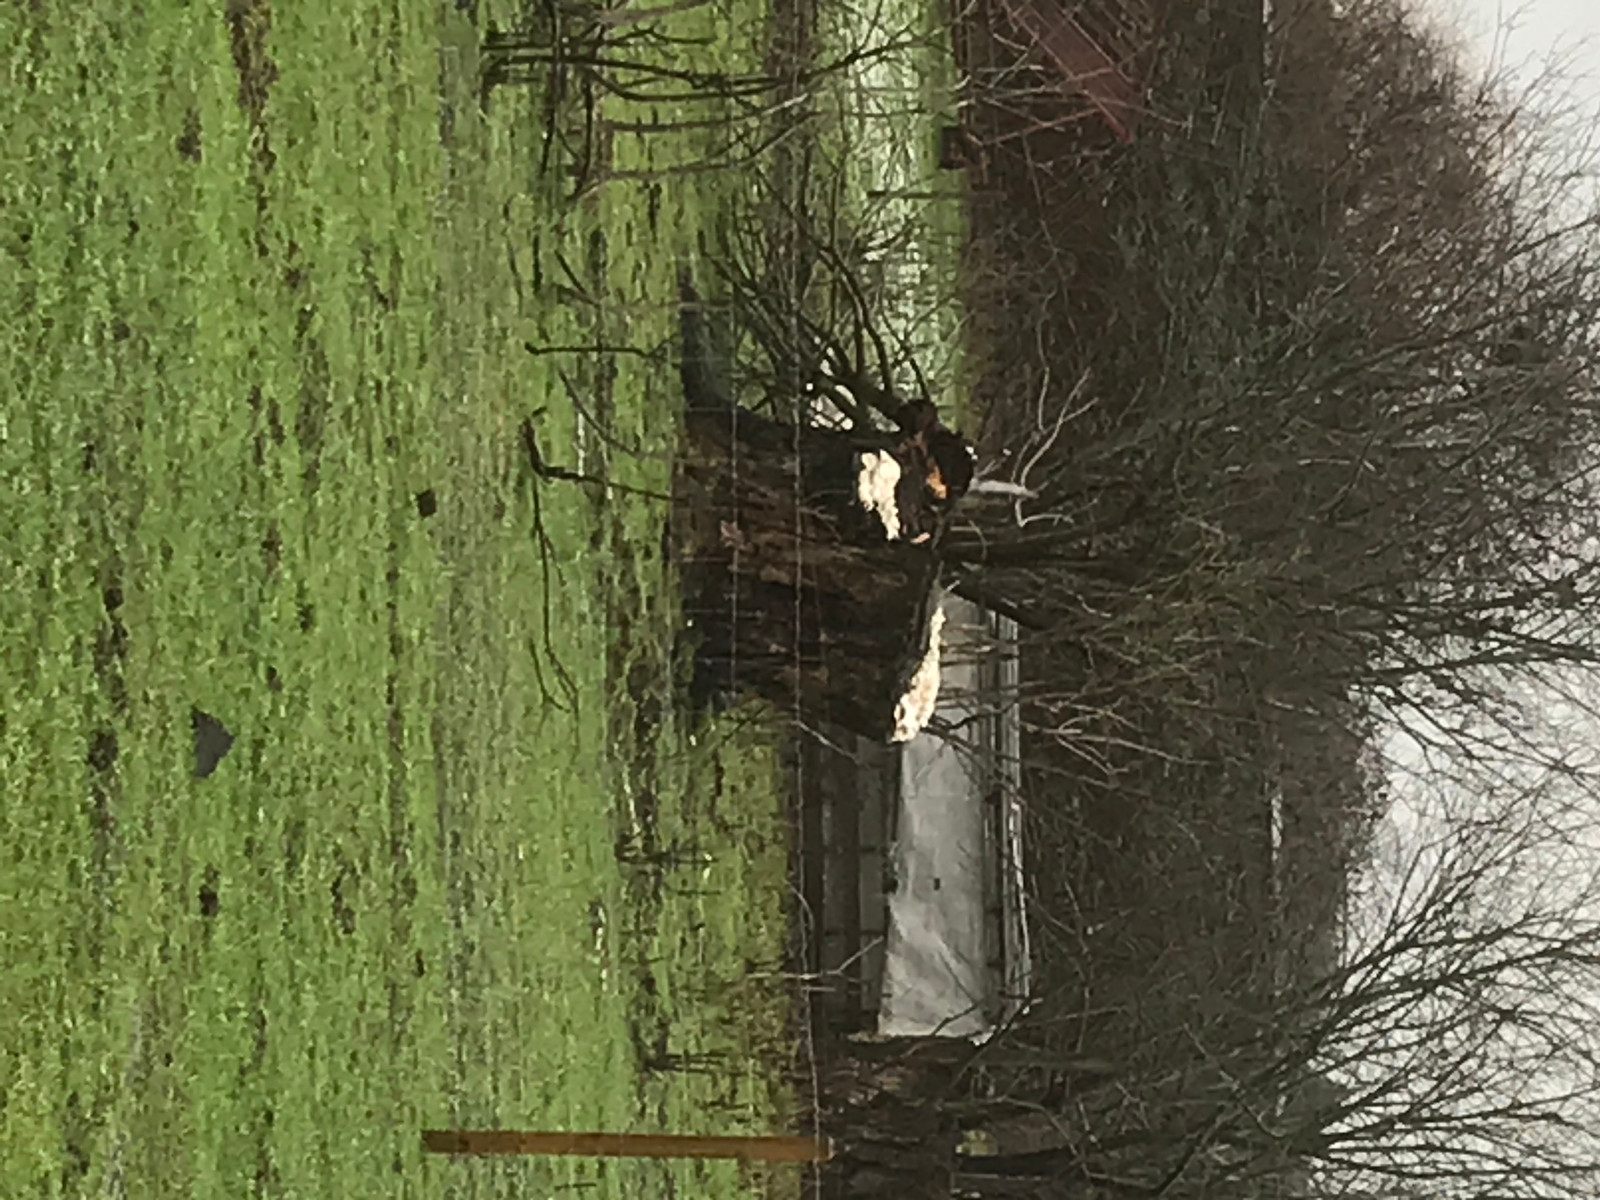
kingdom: Fungi
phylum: Basidiomycota
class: Agaricomycetes
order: Polyporales
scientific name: Polyporales
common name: poresvampordenen
